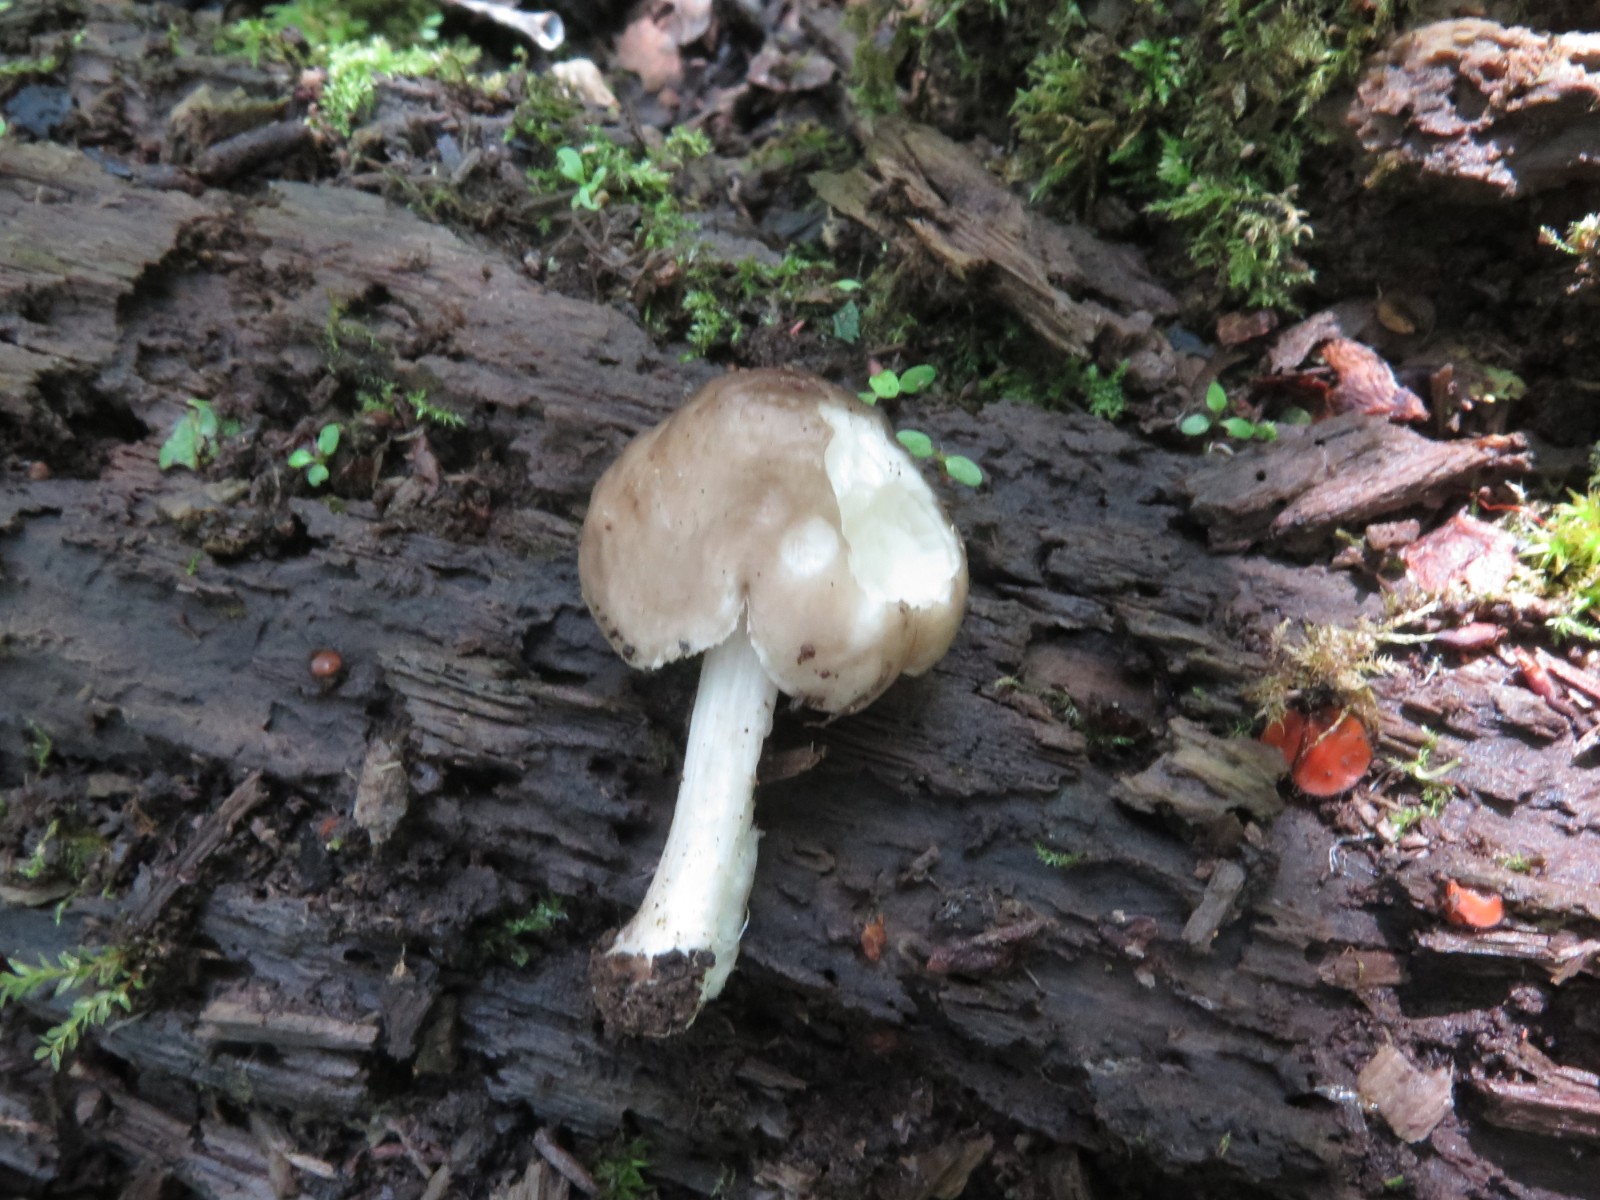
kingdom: Fungi
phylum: Basidiomycota
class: Agaricomycetes
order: Agaricales
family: Pluteaceae
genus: Pluteus
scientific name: Pluteus cervinus
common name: sodfarvet skærmhat
